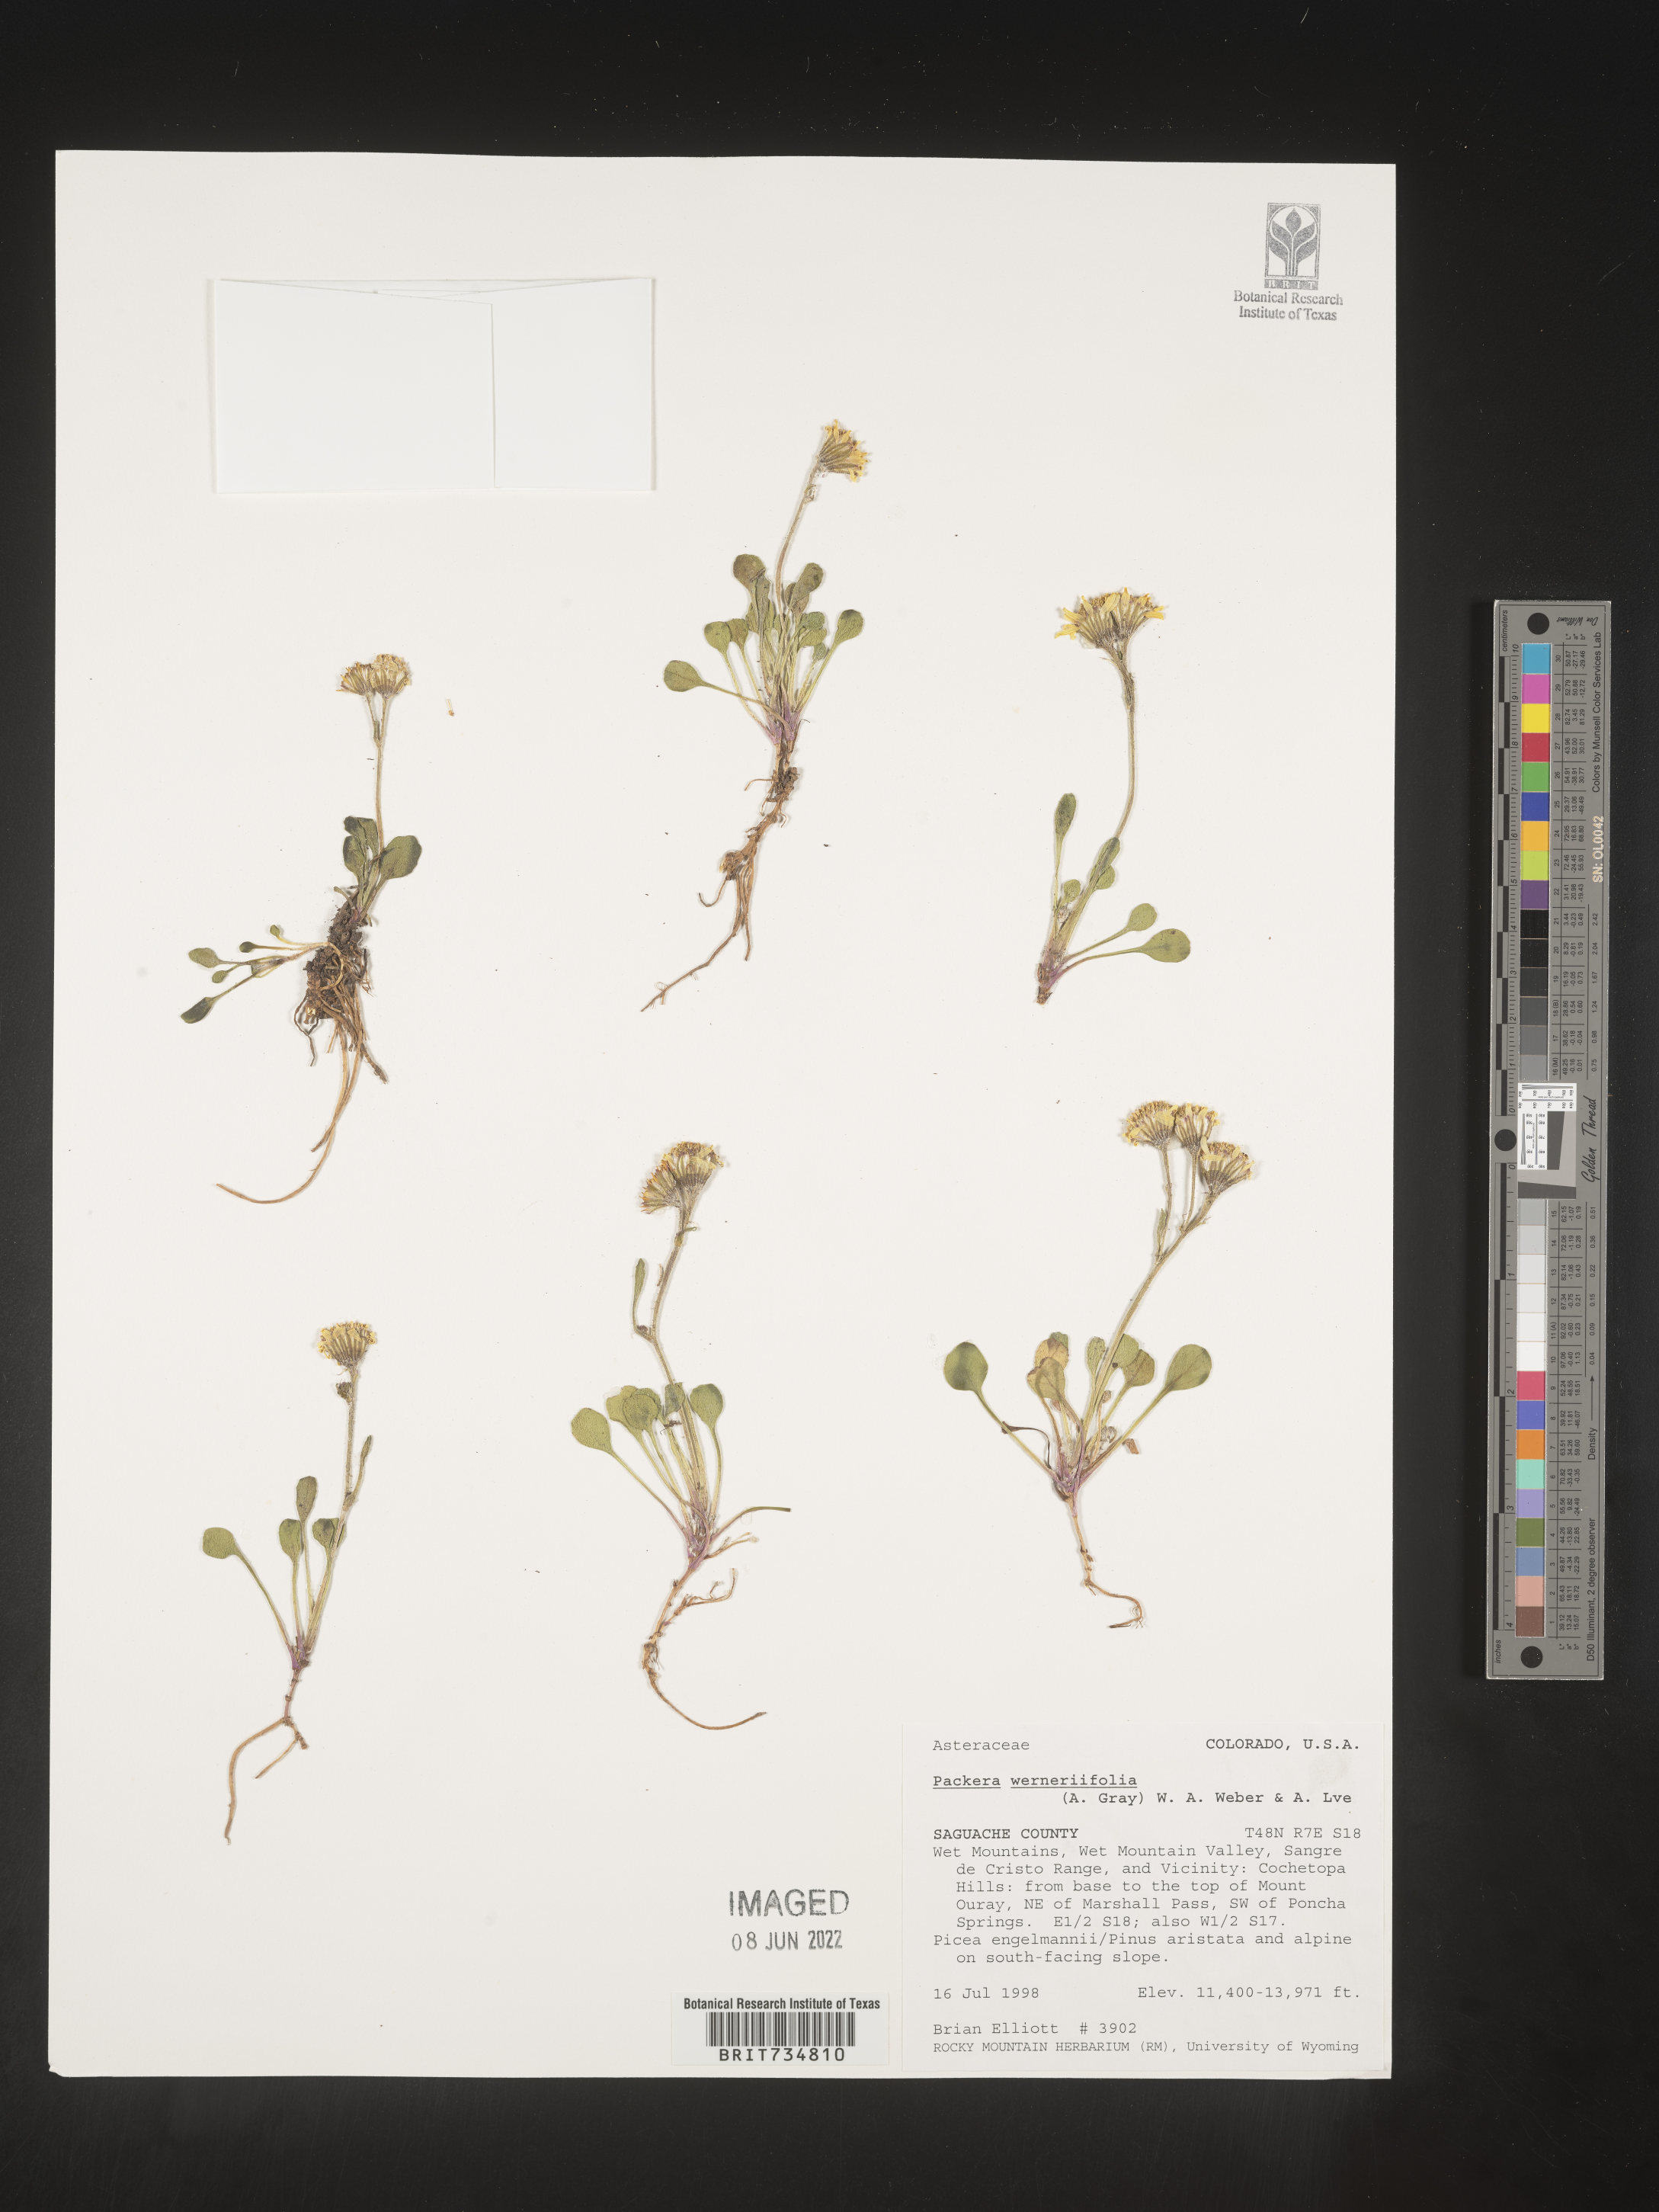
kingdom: Plantae
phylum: Tracheophyta
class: Magnoliopsida
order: Asterales
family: Asteraceae
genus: Packera
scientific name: Packera werneriifolia
